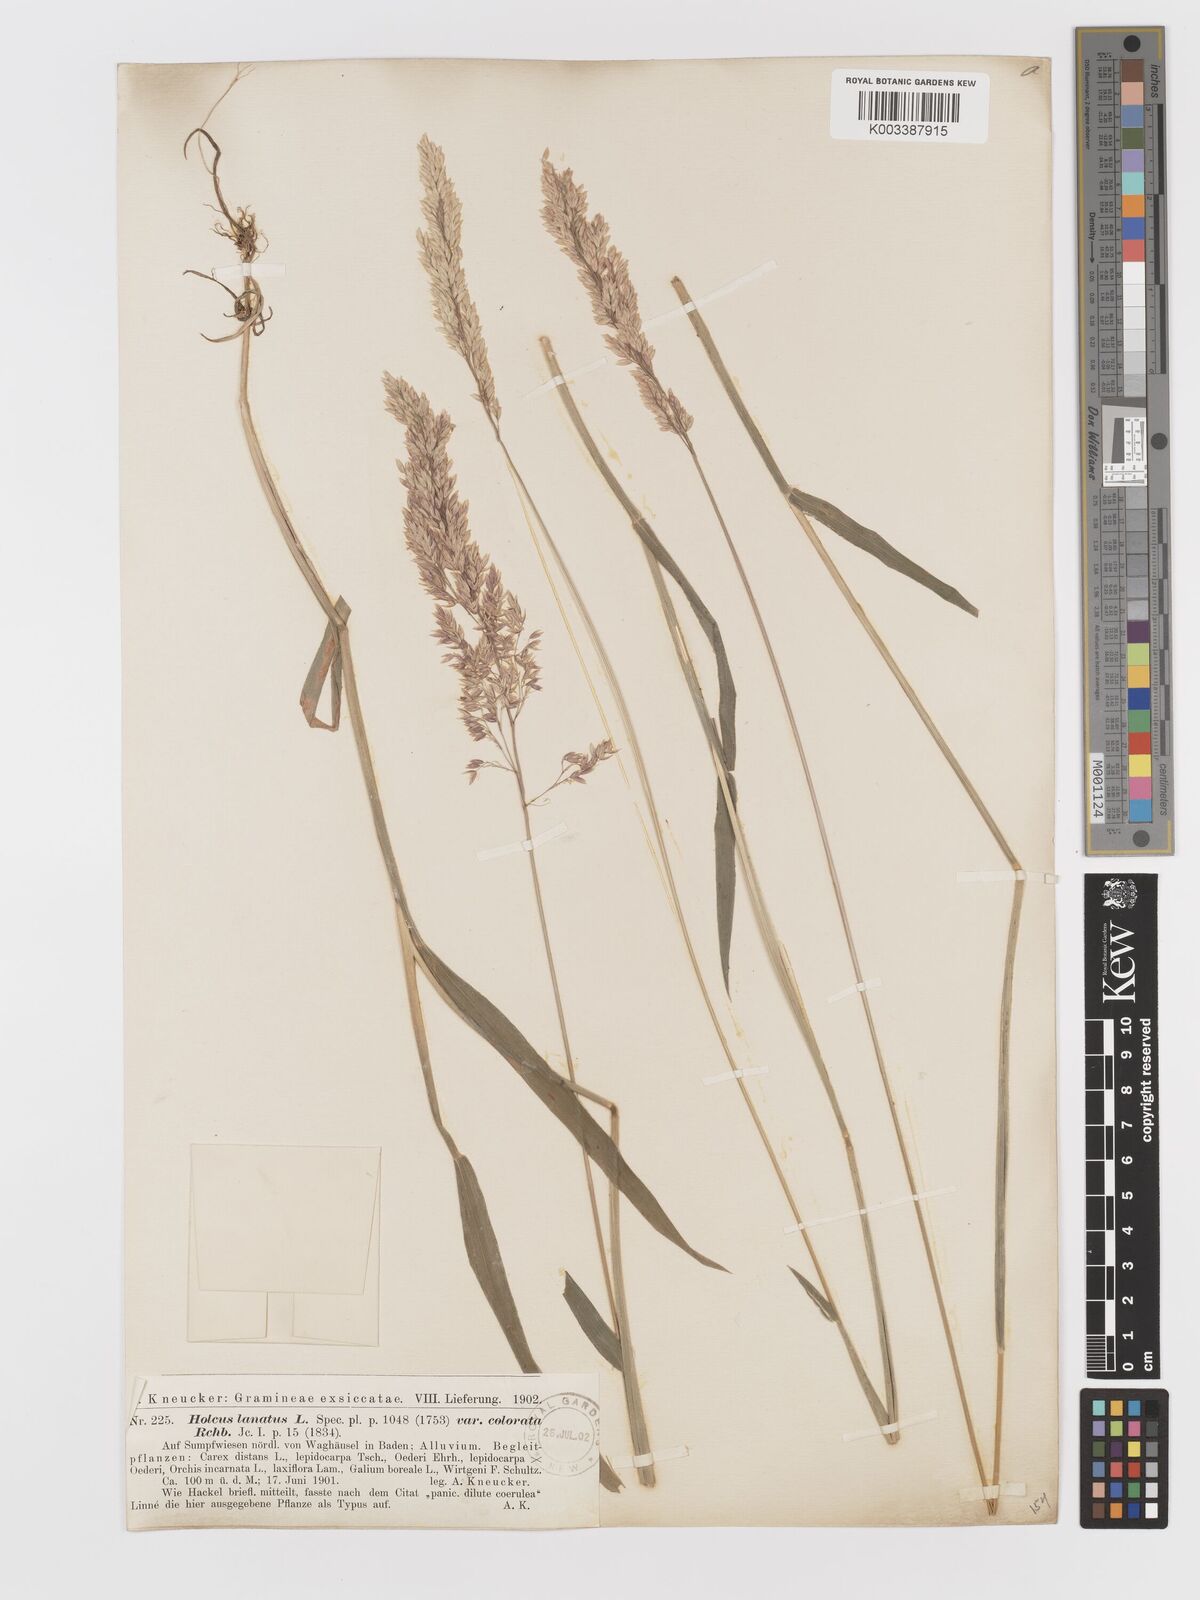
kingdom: Plantae
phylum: Tracheophyta
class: Liliopsida
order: Poales
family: Poaceae
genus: Holcus
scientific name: Holcus lanatus
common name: Yorkshire-fog
